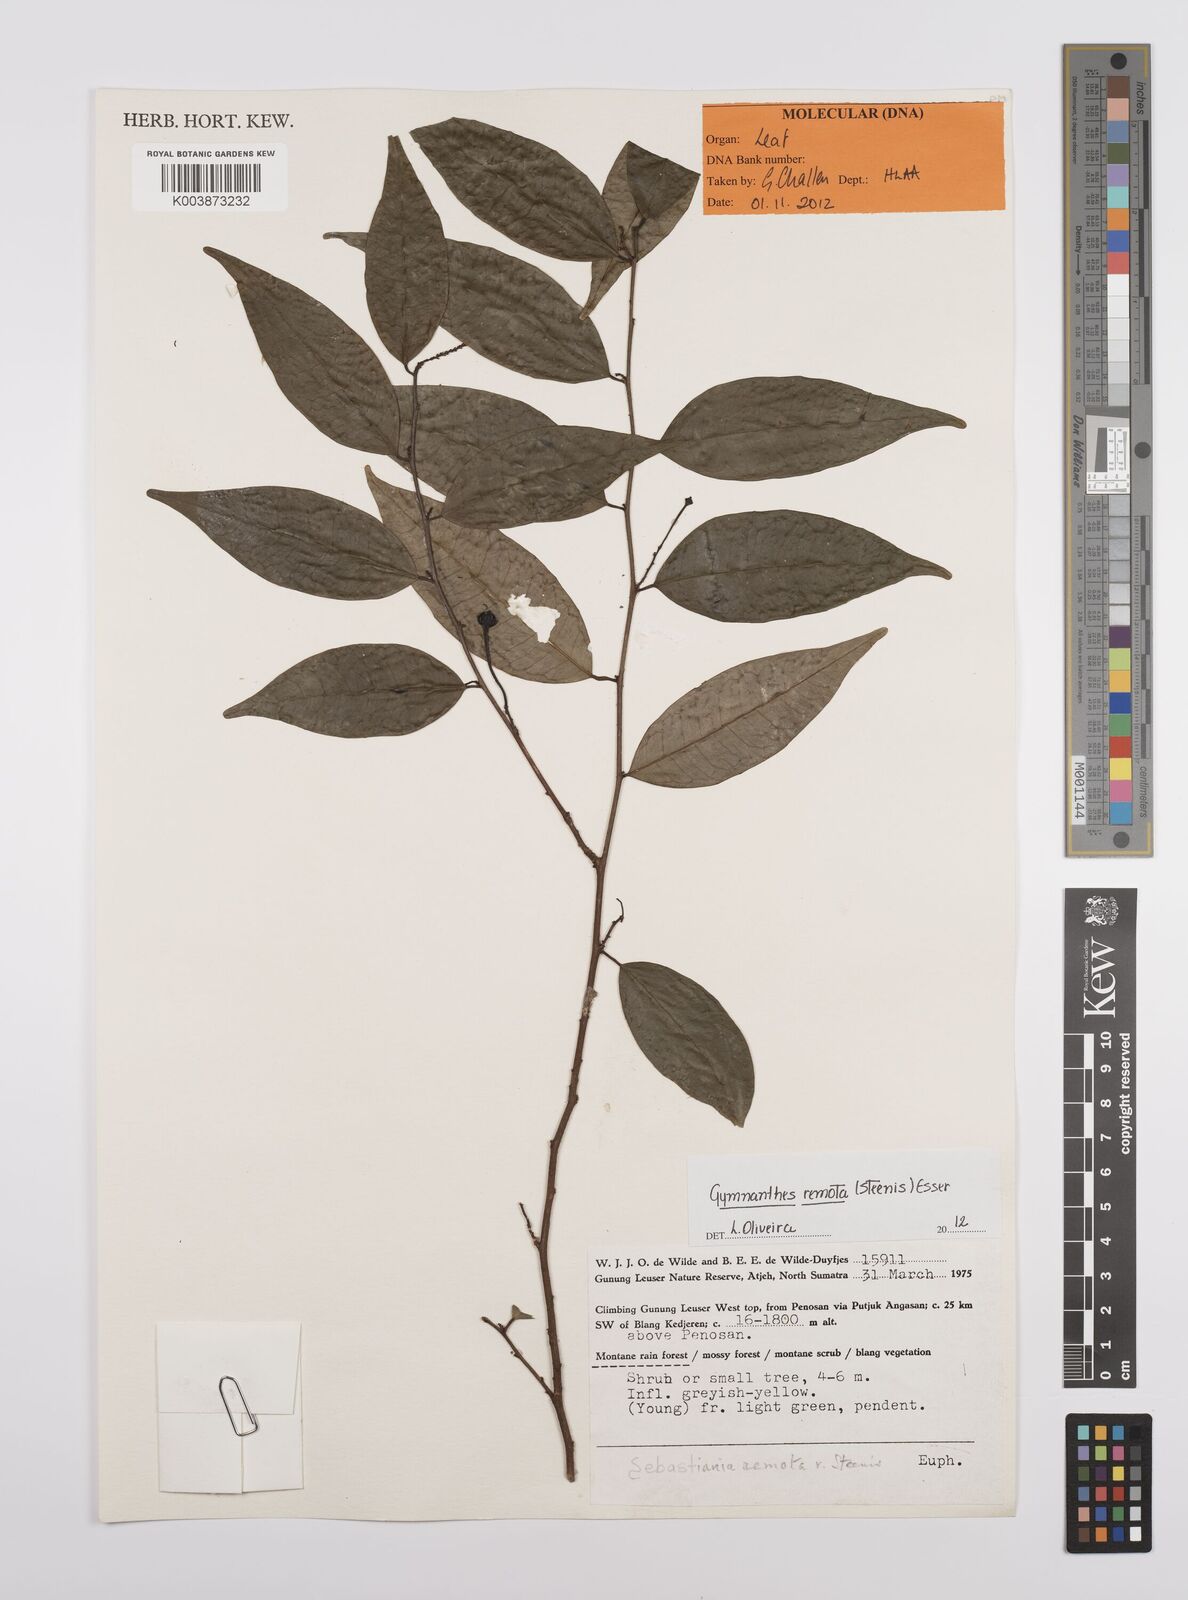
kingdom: Plantae
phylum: Tracheophyta
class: Magnoliopsida
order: Malpighiales
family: Euphorbiaceae
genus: Gymnanthes
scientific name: Gymnanthes remota
